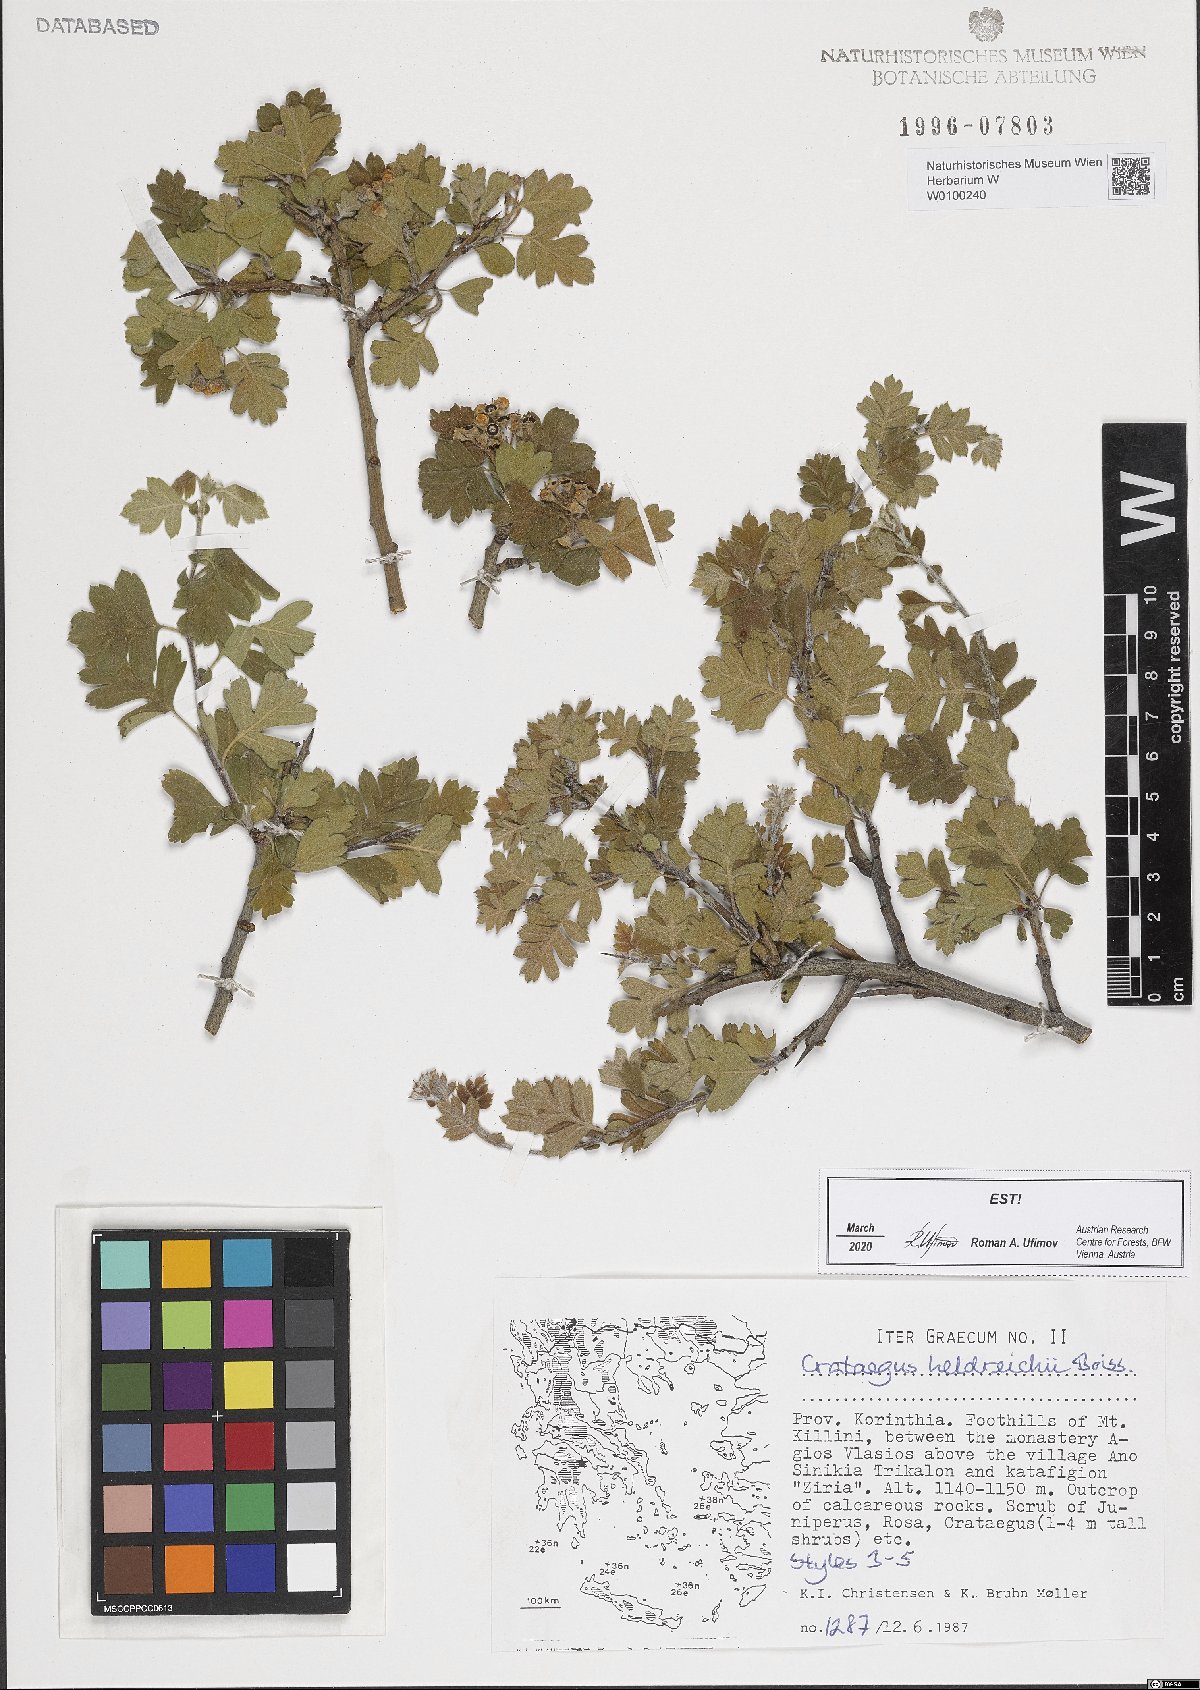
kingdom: Plantae
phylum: Tracheophyta
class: Magnoliopsida
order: Rosales
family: Rosaceae
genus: Crataegus
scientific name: Crataegus heldreichii
